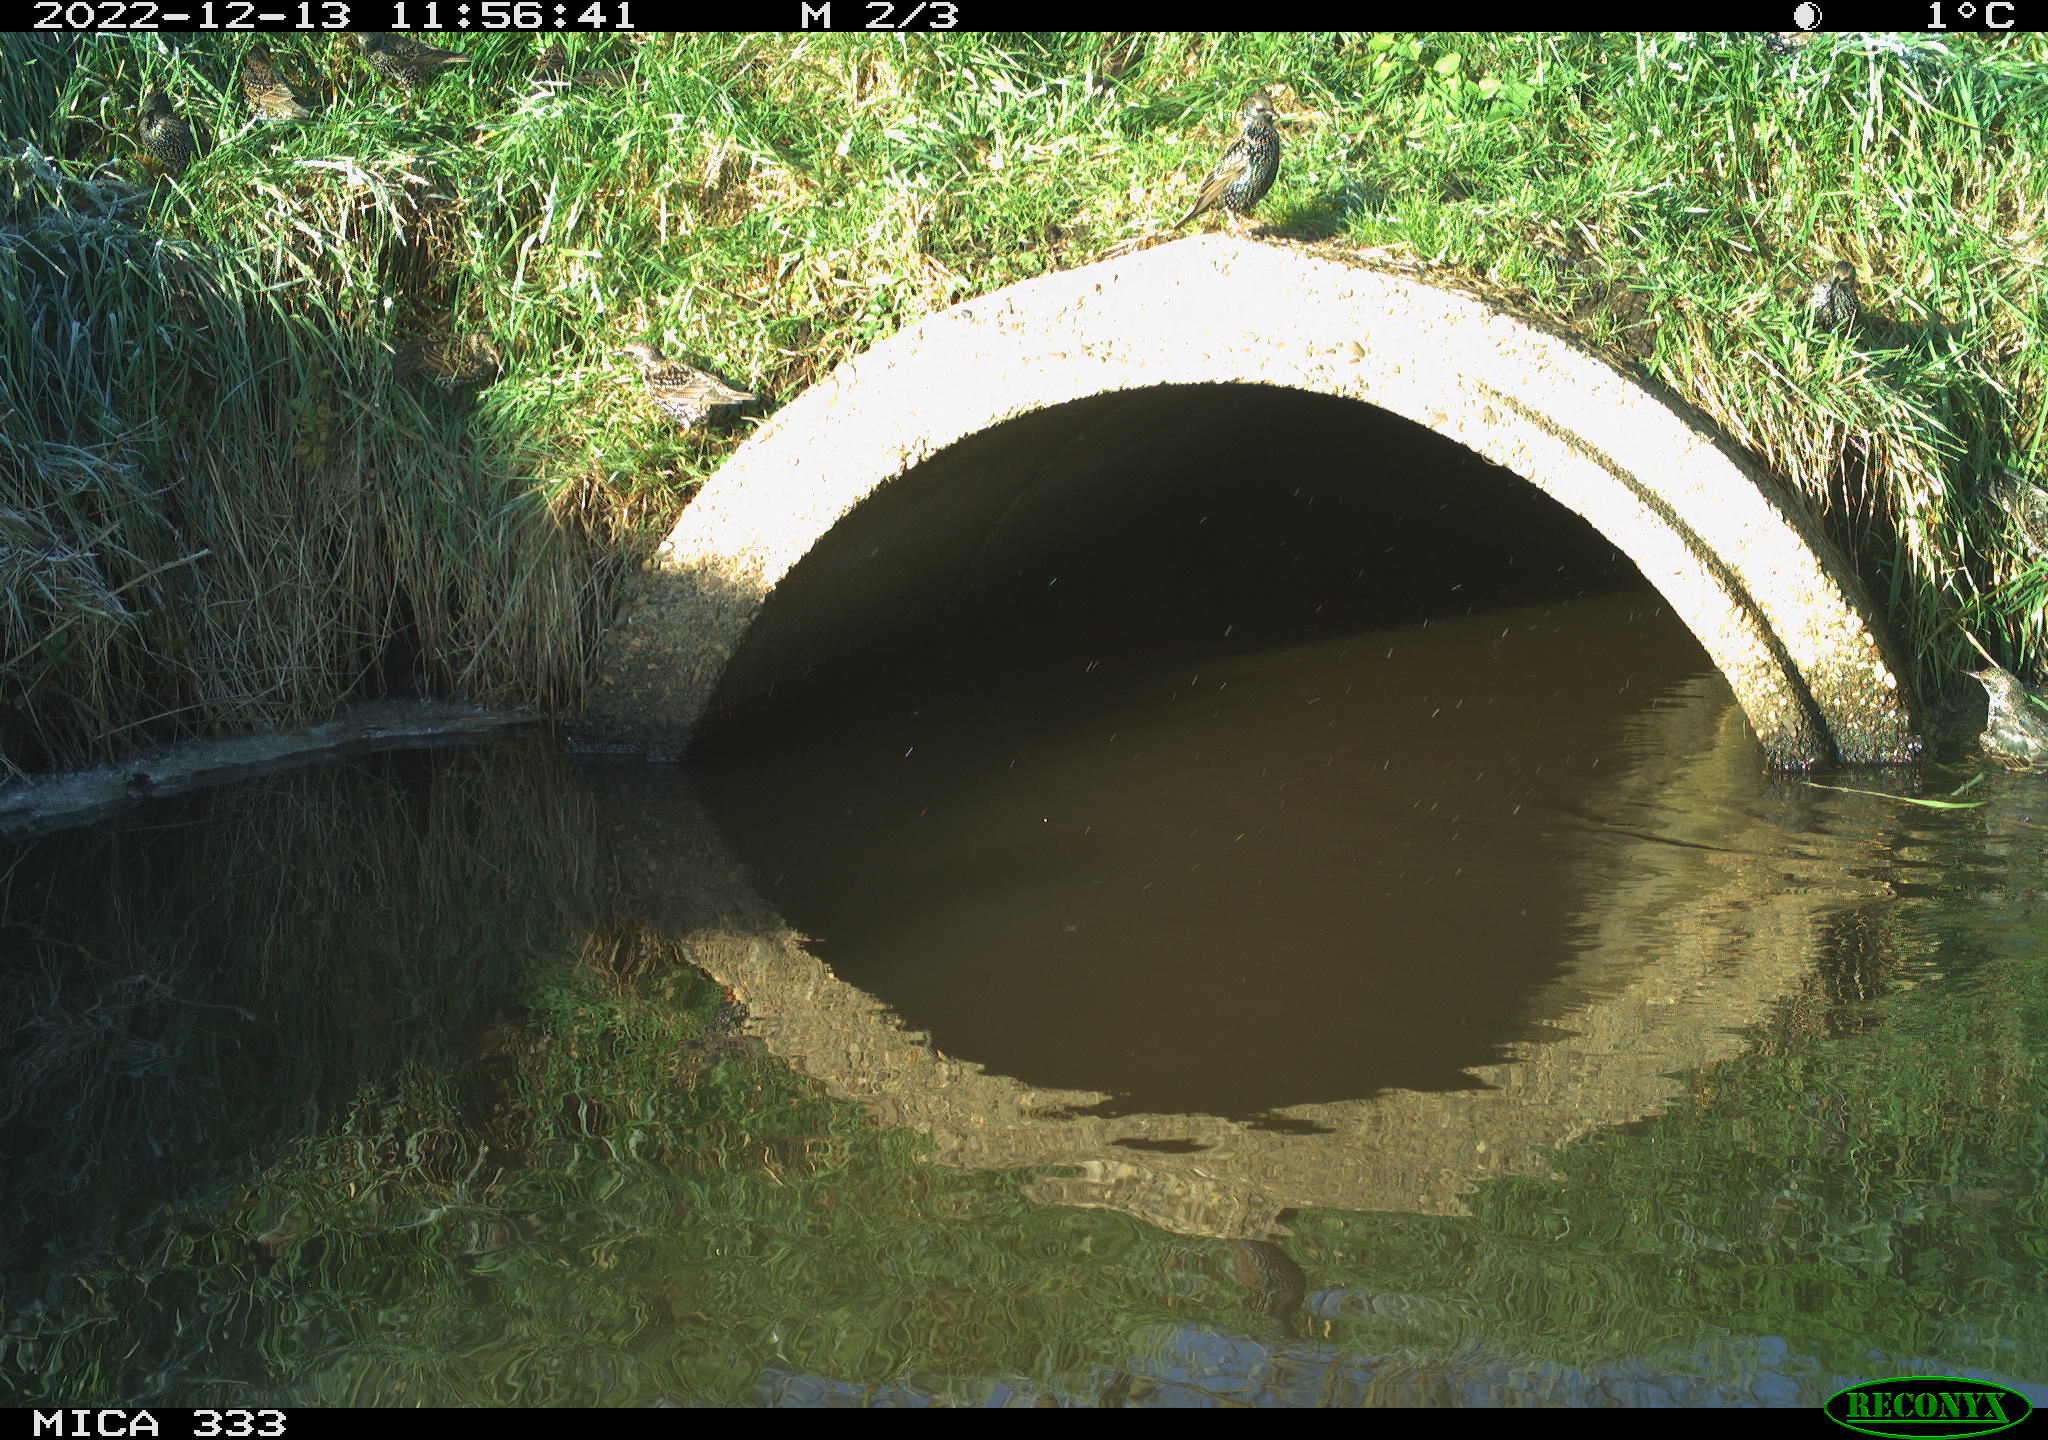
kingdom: Animalia
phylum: Chordata
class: Aves
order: Passeriformes
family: Sturnidae
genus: Sturnus
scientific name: Sturnus vulgaris
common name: Common starling
